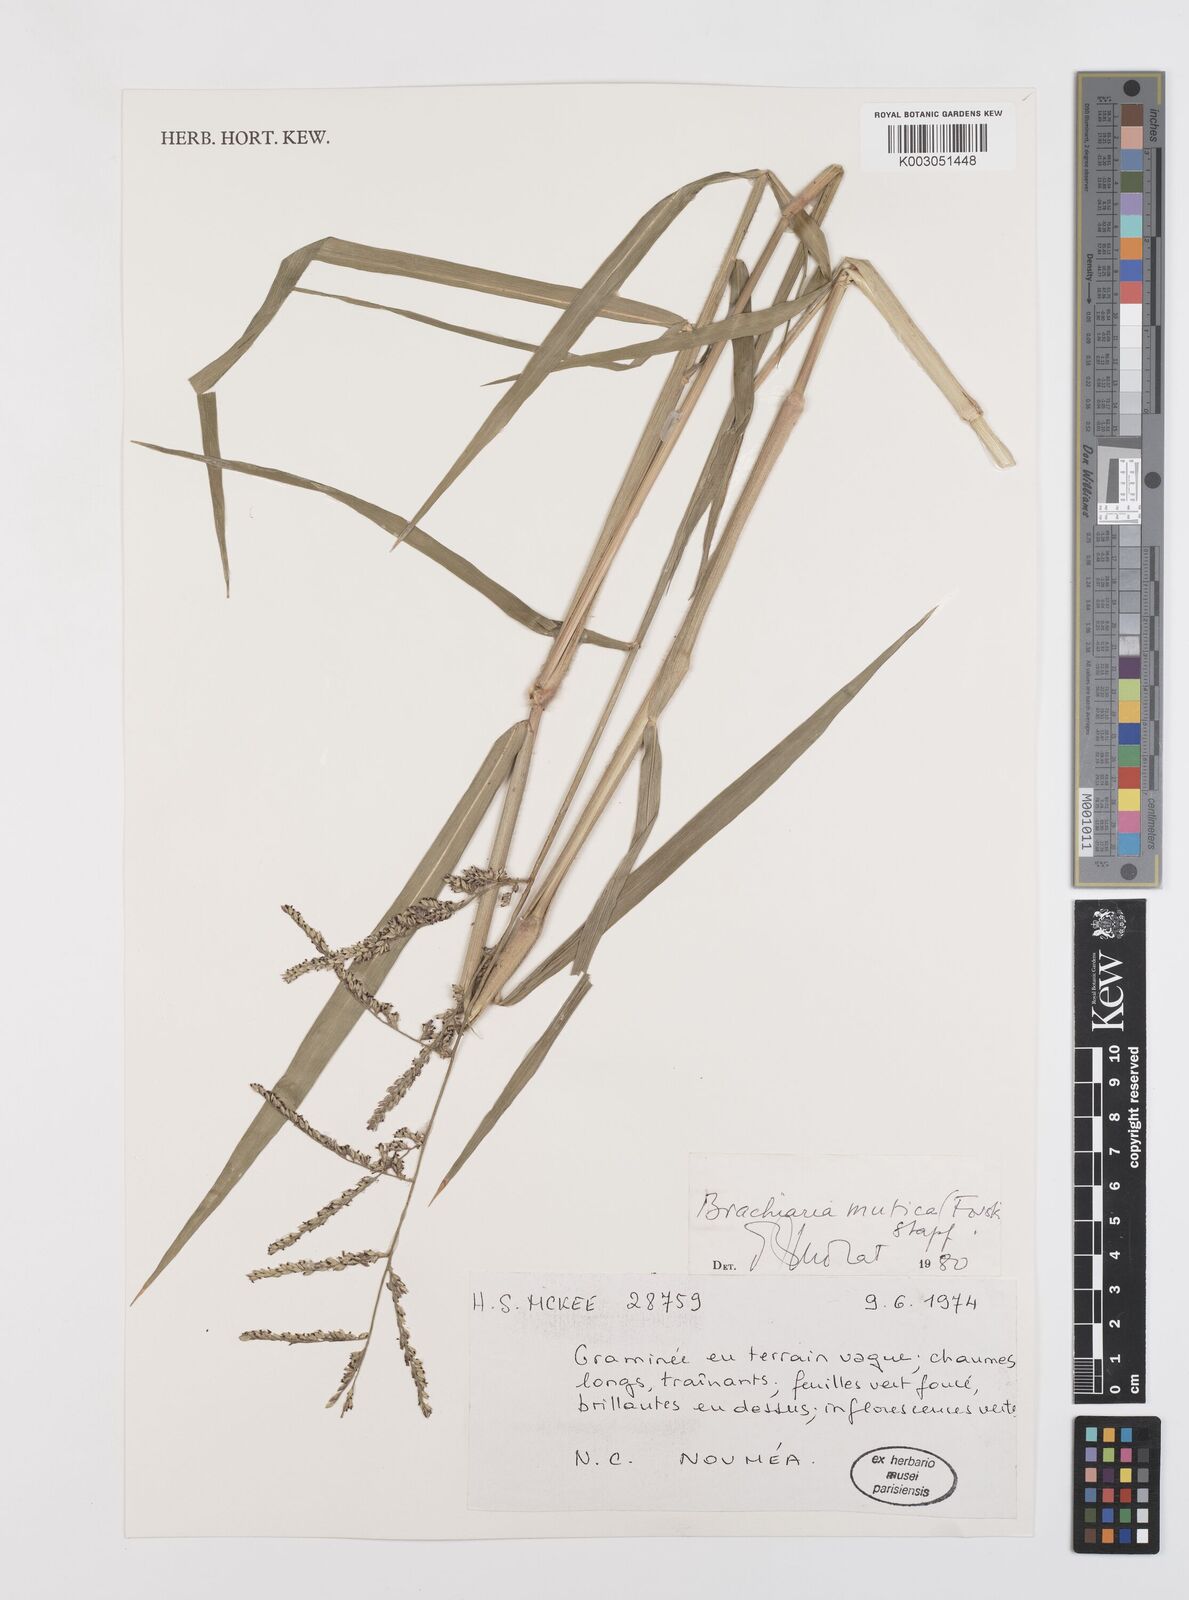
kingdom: Plantae
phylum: Tracheophyta
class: Liliopsida
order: Poales
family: Poaceae
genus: Urochloa
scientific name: Urochloa mutica
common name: Para grass
